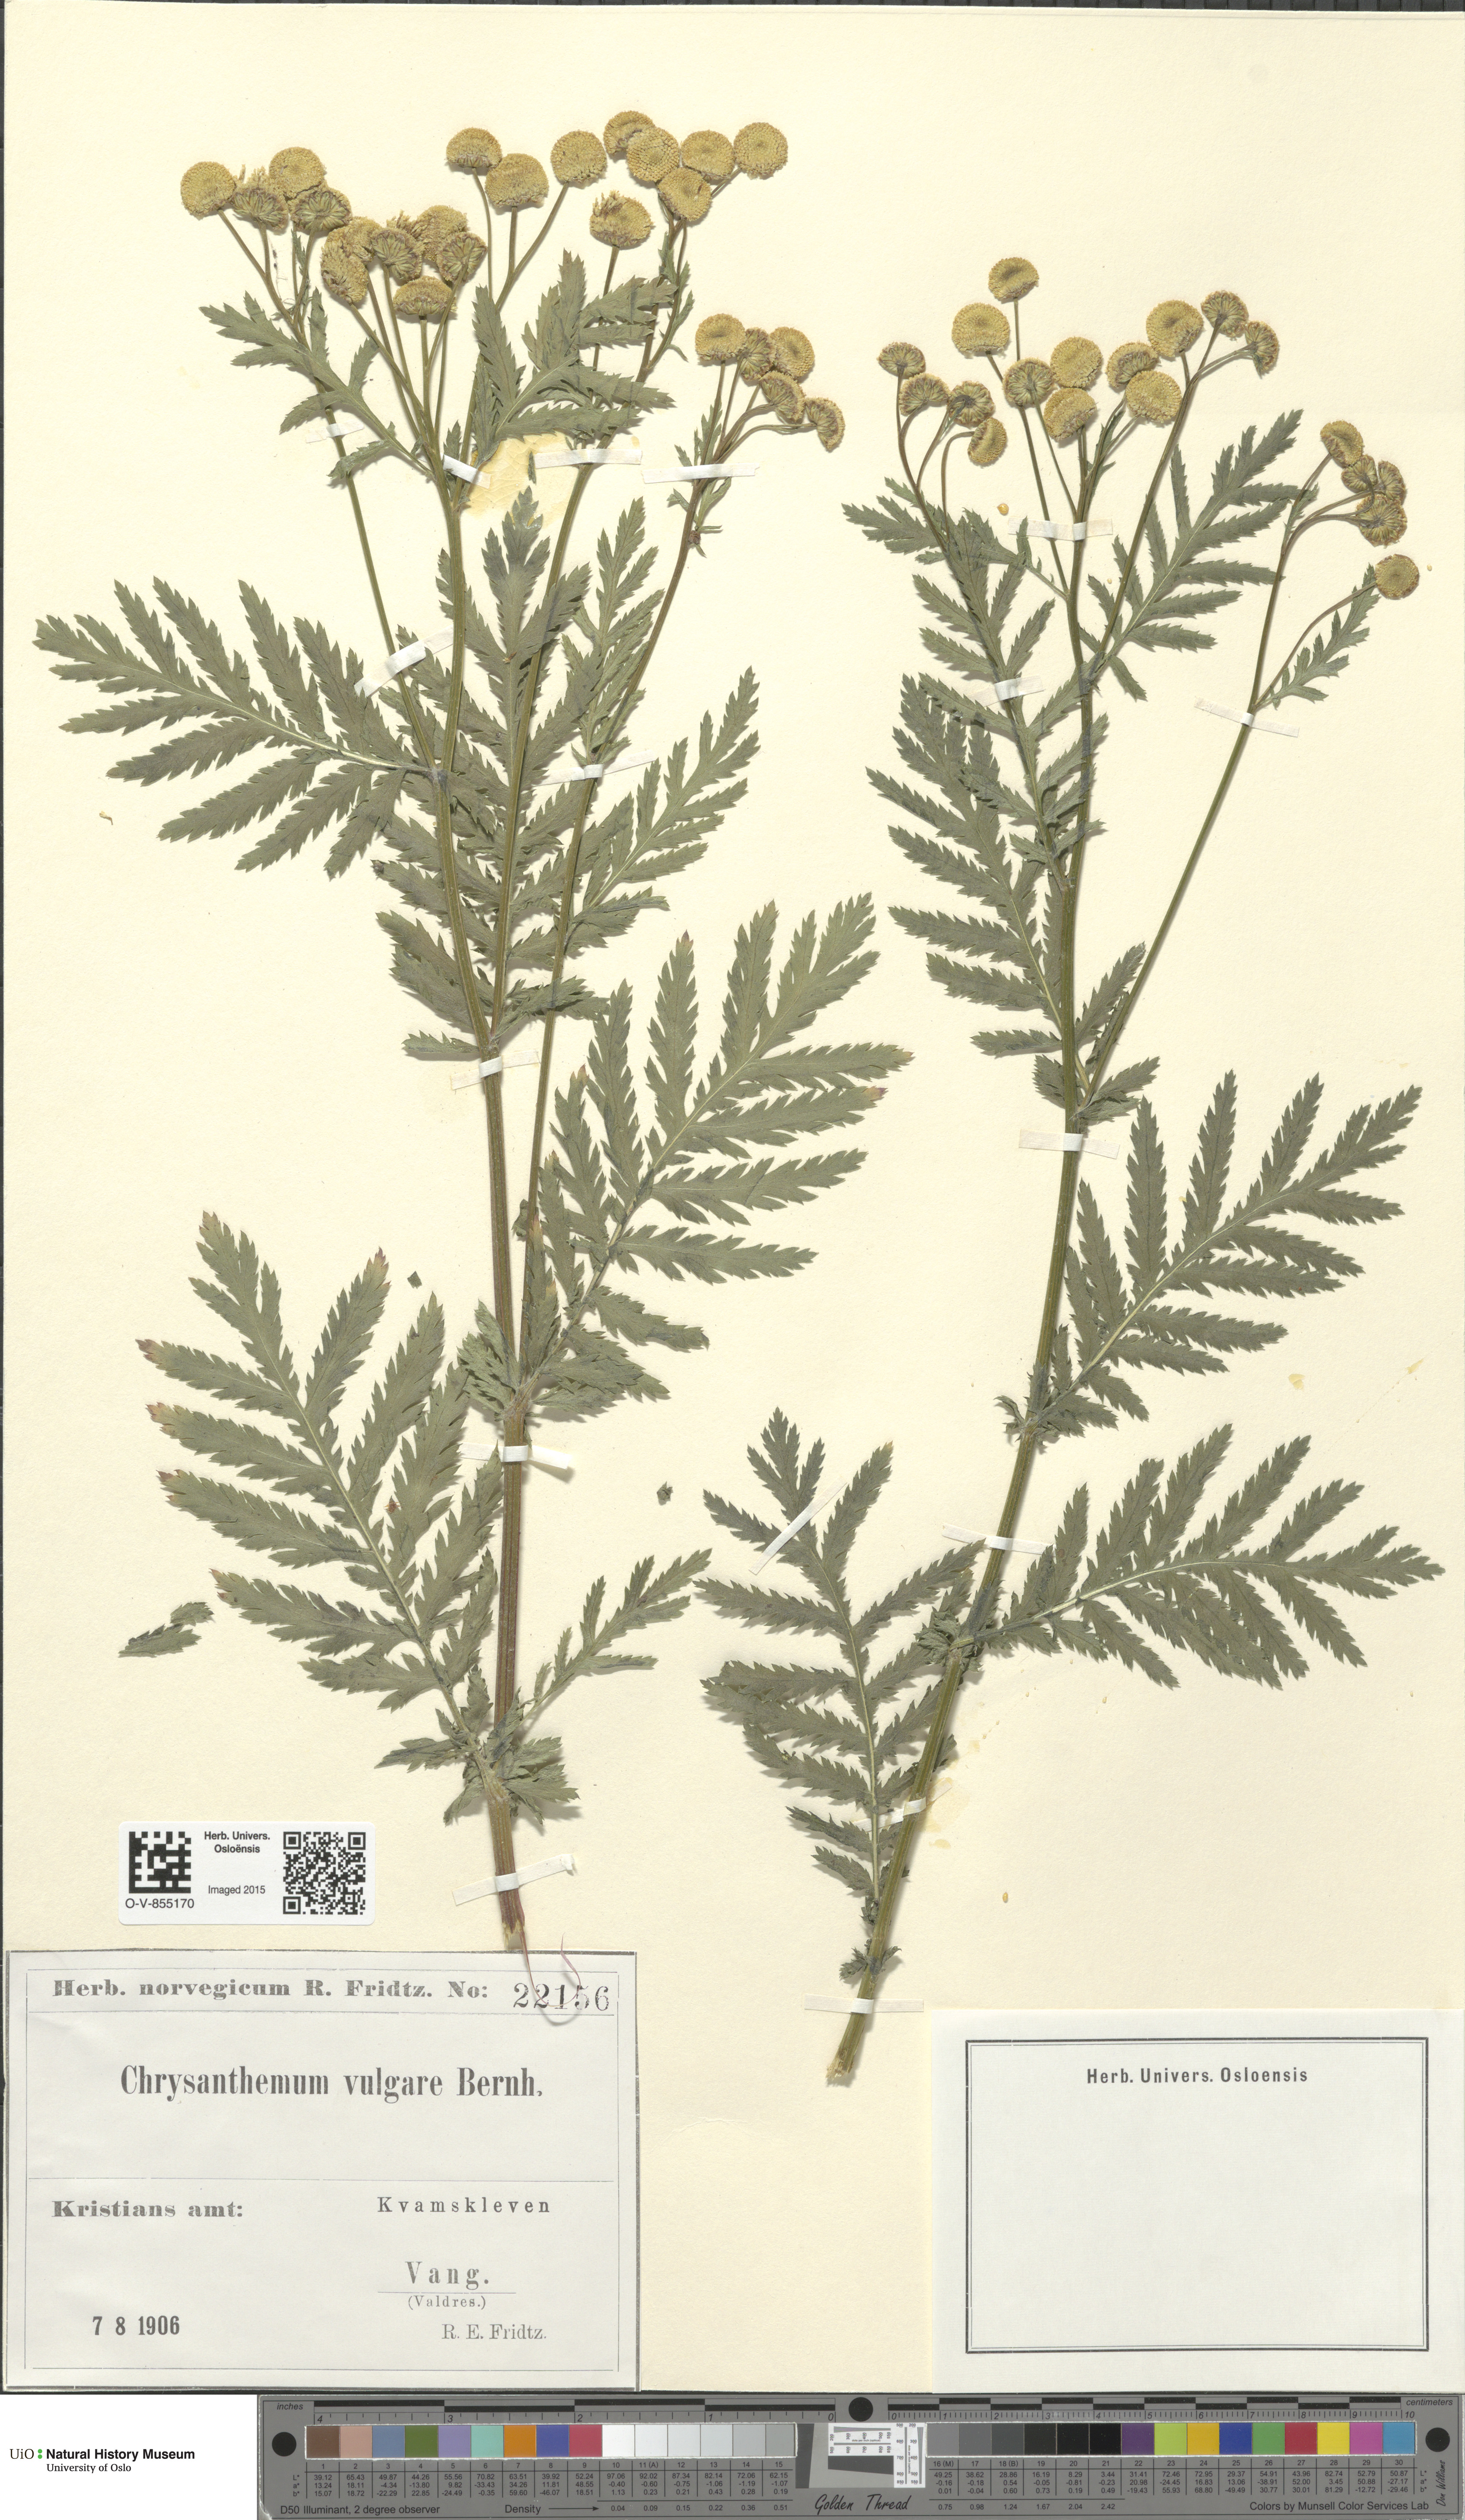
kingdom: Plantae
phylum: Tracheophyta
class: Magnoliopsida
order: Asterales
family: Asteraceae
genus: Tanacetum
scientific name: Tanacetum vulgare
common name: Common tansy
